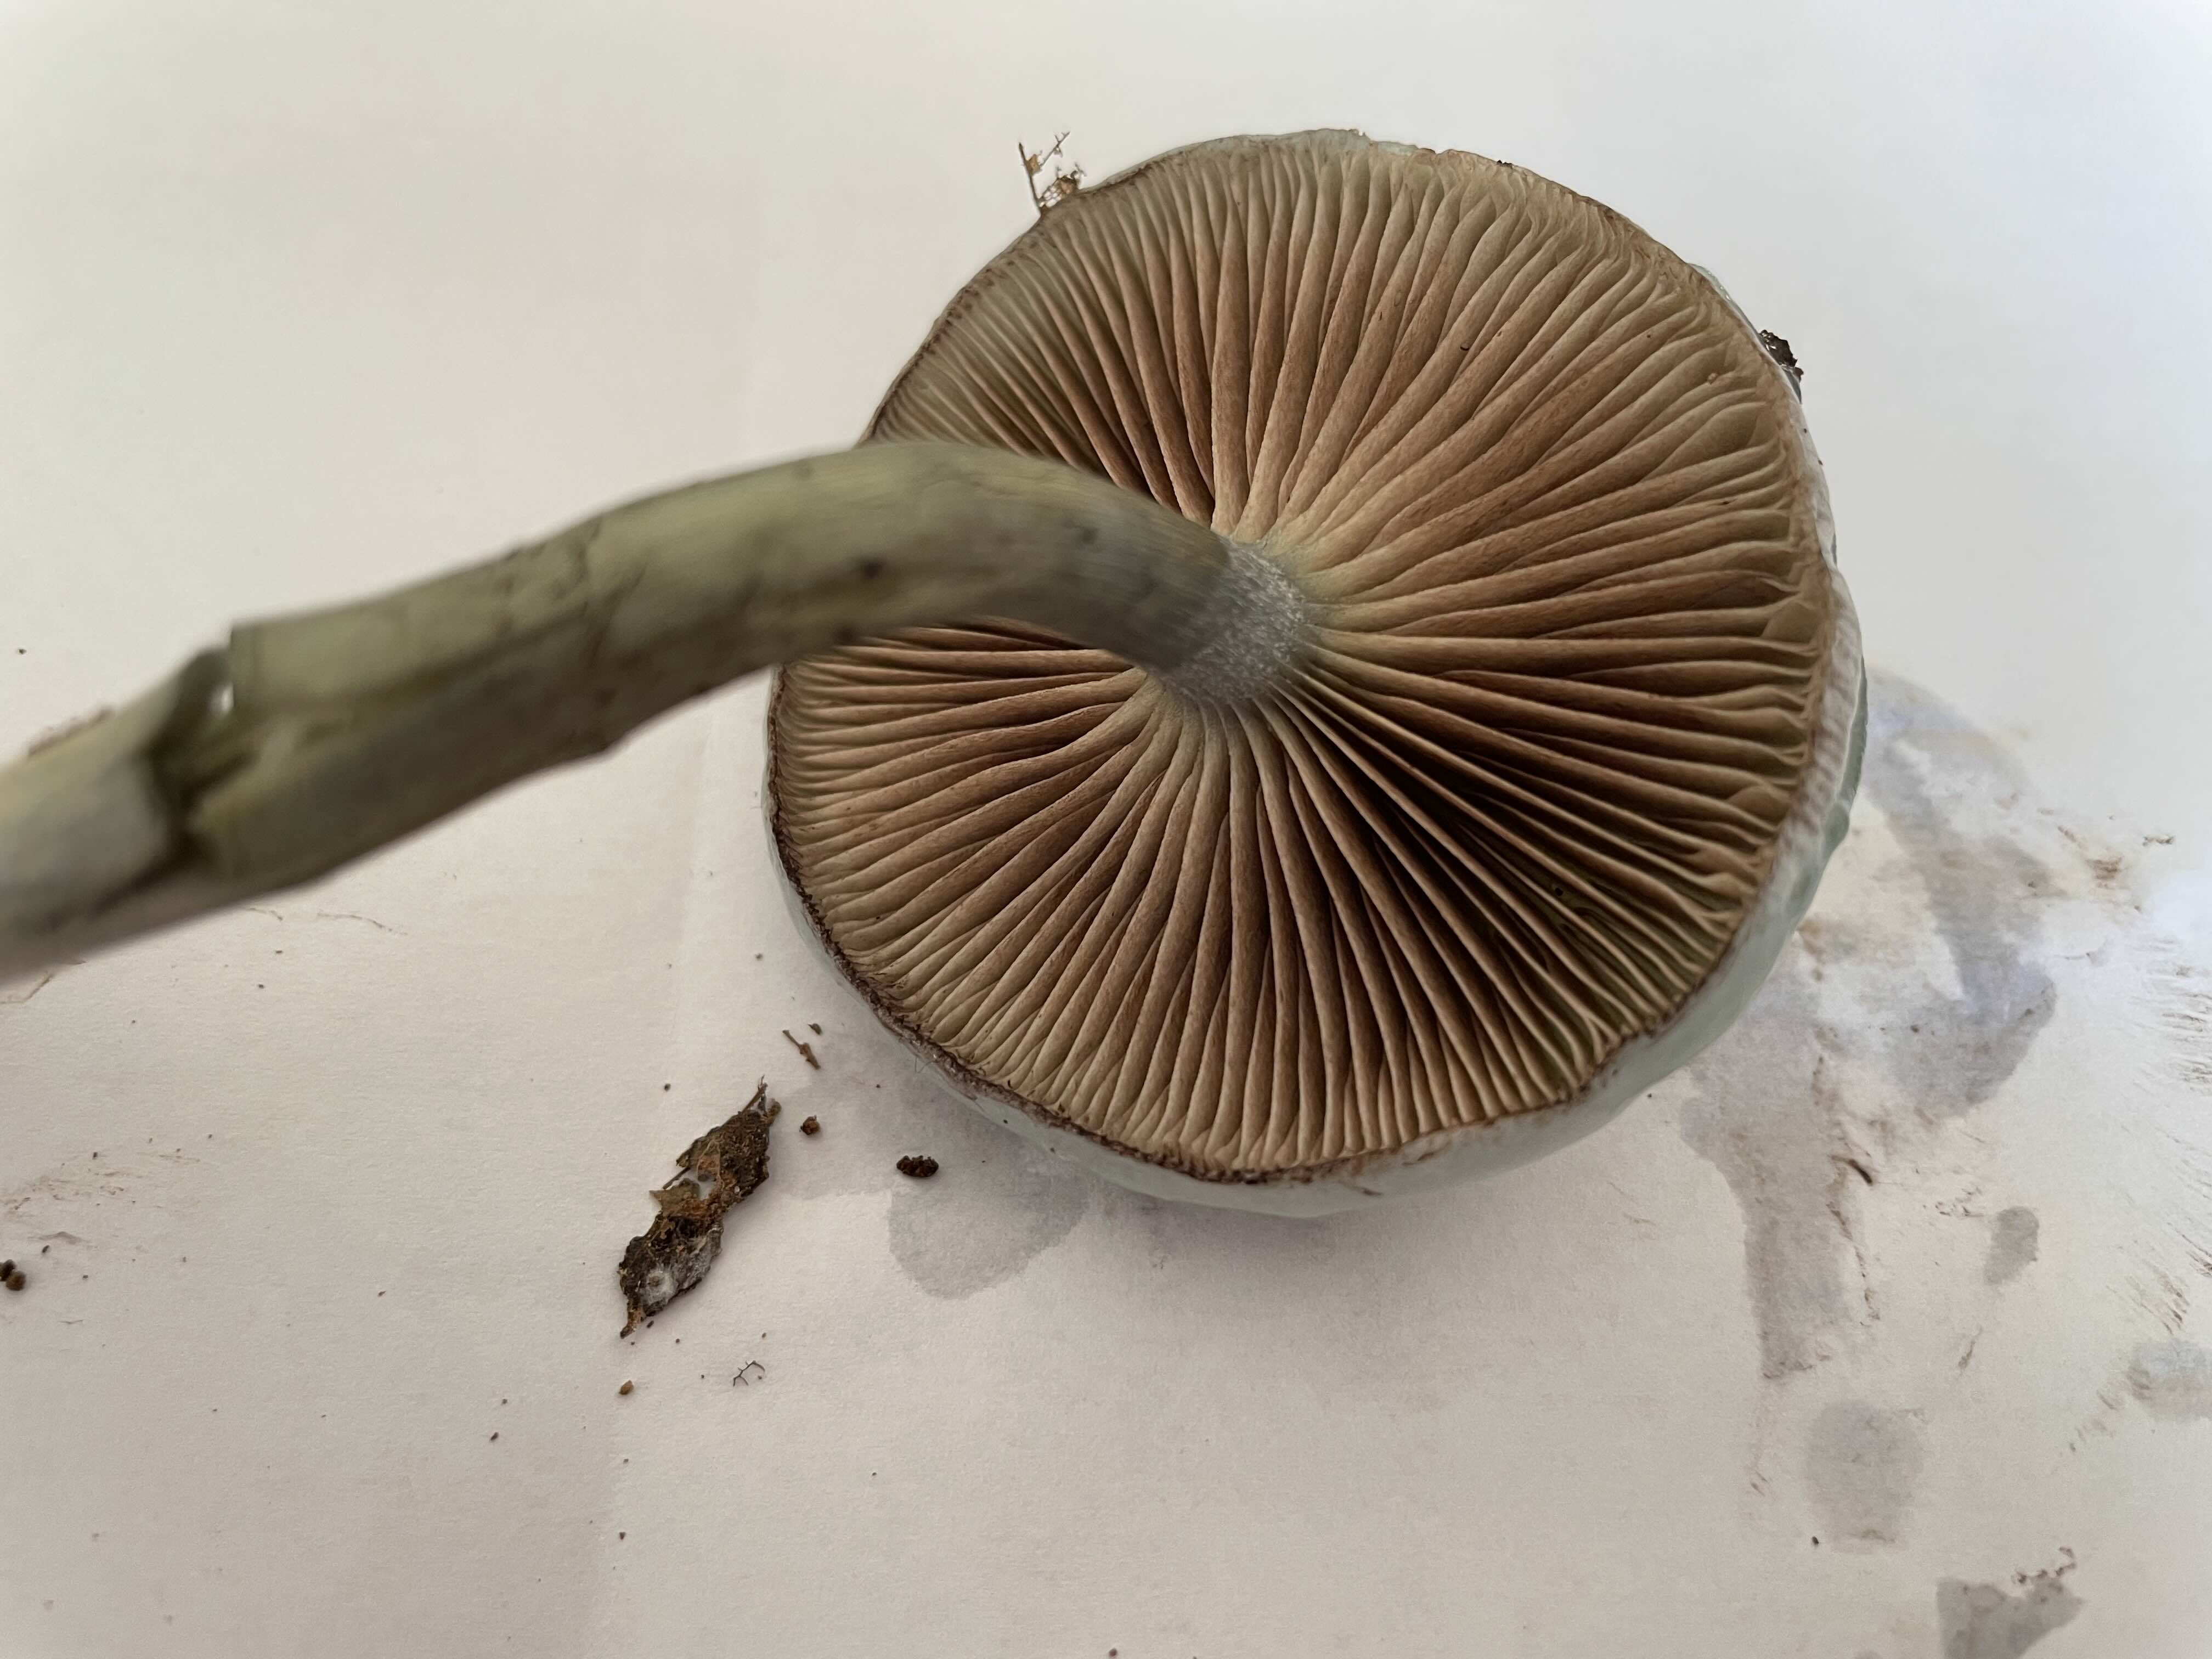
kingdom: Fungi
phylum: Basidiomycota
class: Agaricomycetes
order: Agaricales
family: Strophariaceae
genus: Stropharia
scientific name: Stropharia cyanea
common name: blågrøn bredblad
